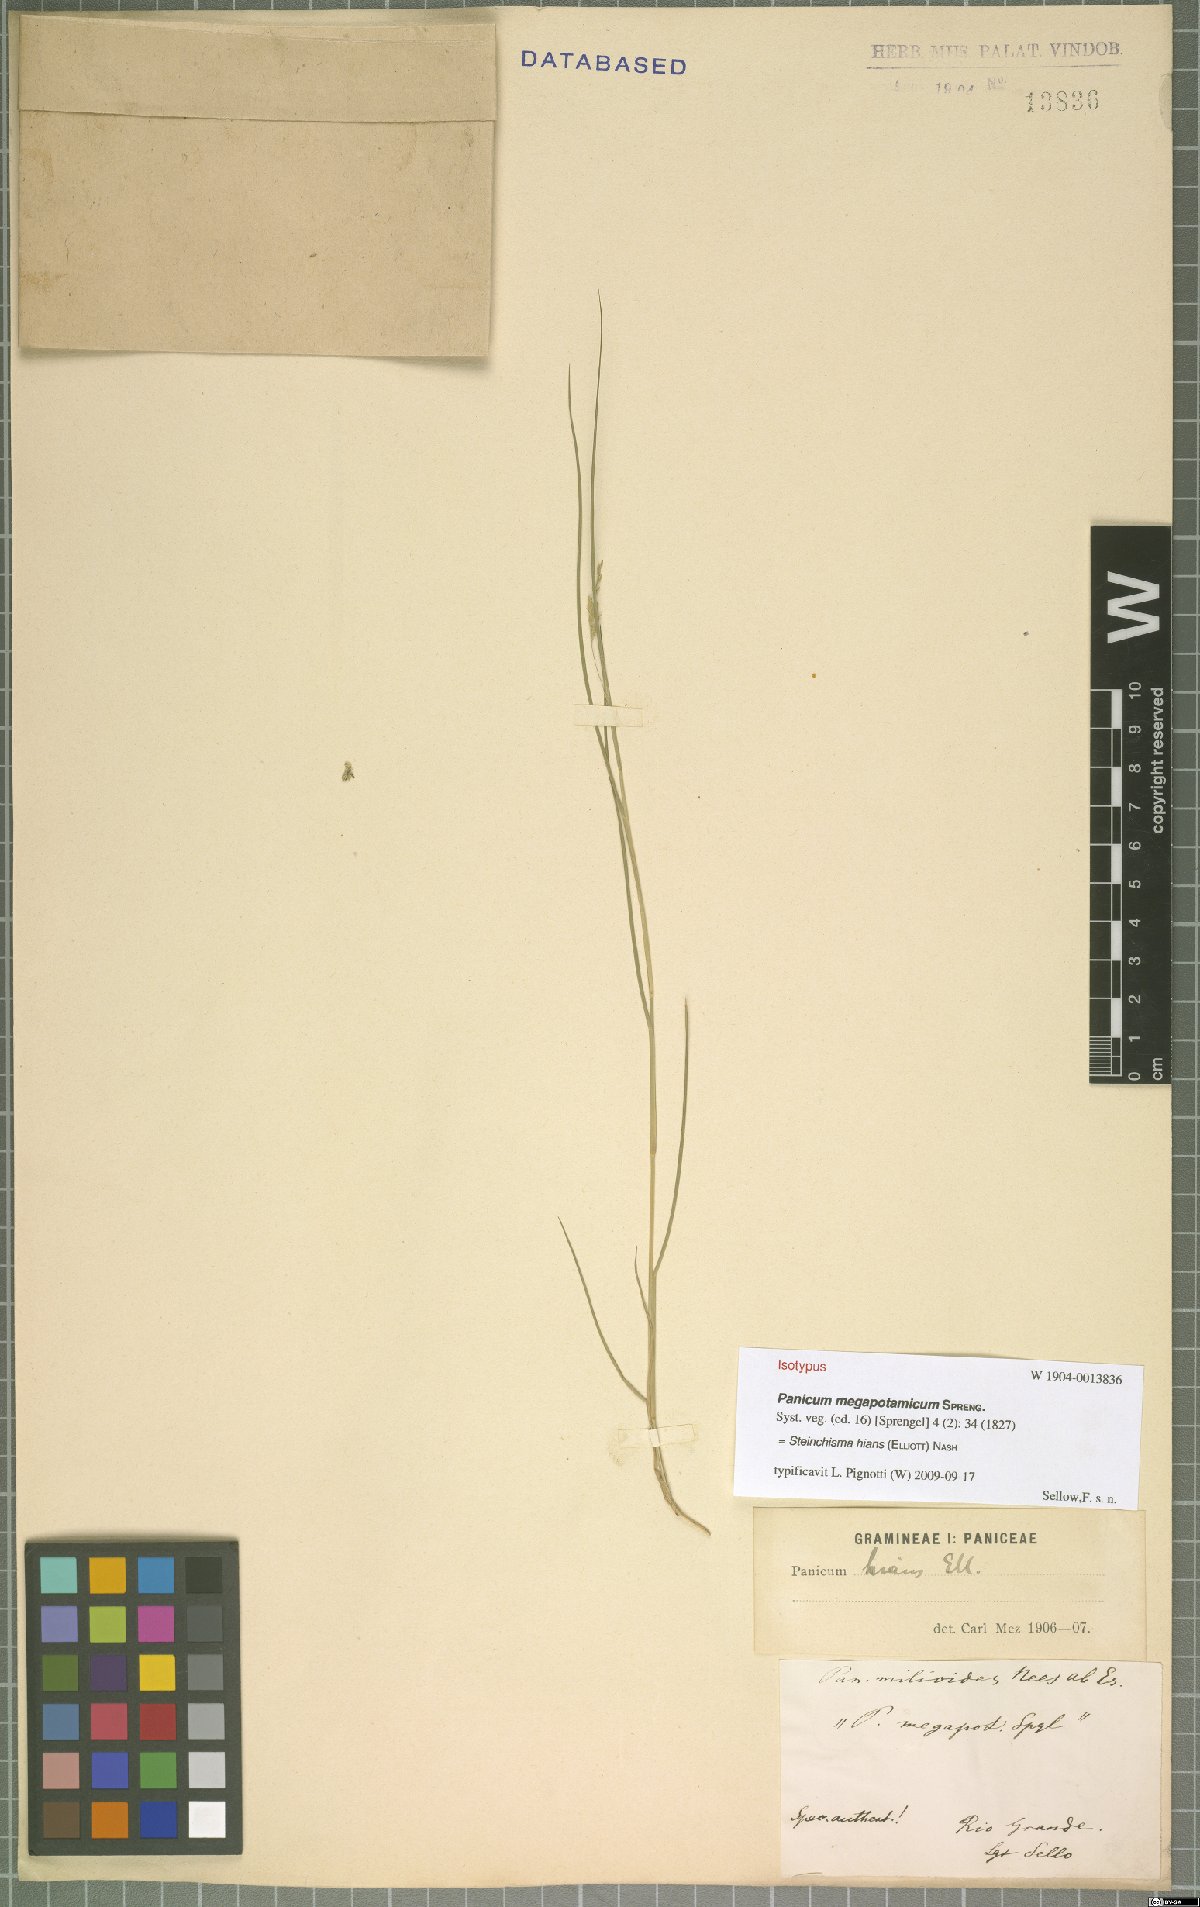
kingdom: Plantae
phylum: Tracheophyta
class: Liliopsida
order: Poales
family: Poaceae
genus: Steinchisma
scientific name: Steinchisma hians
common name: Gaping panic grass
